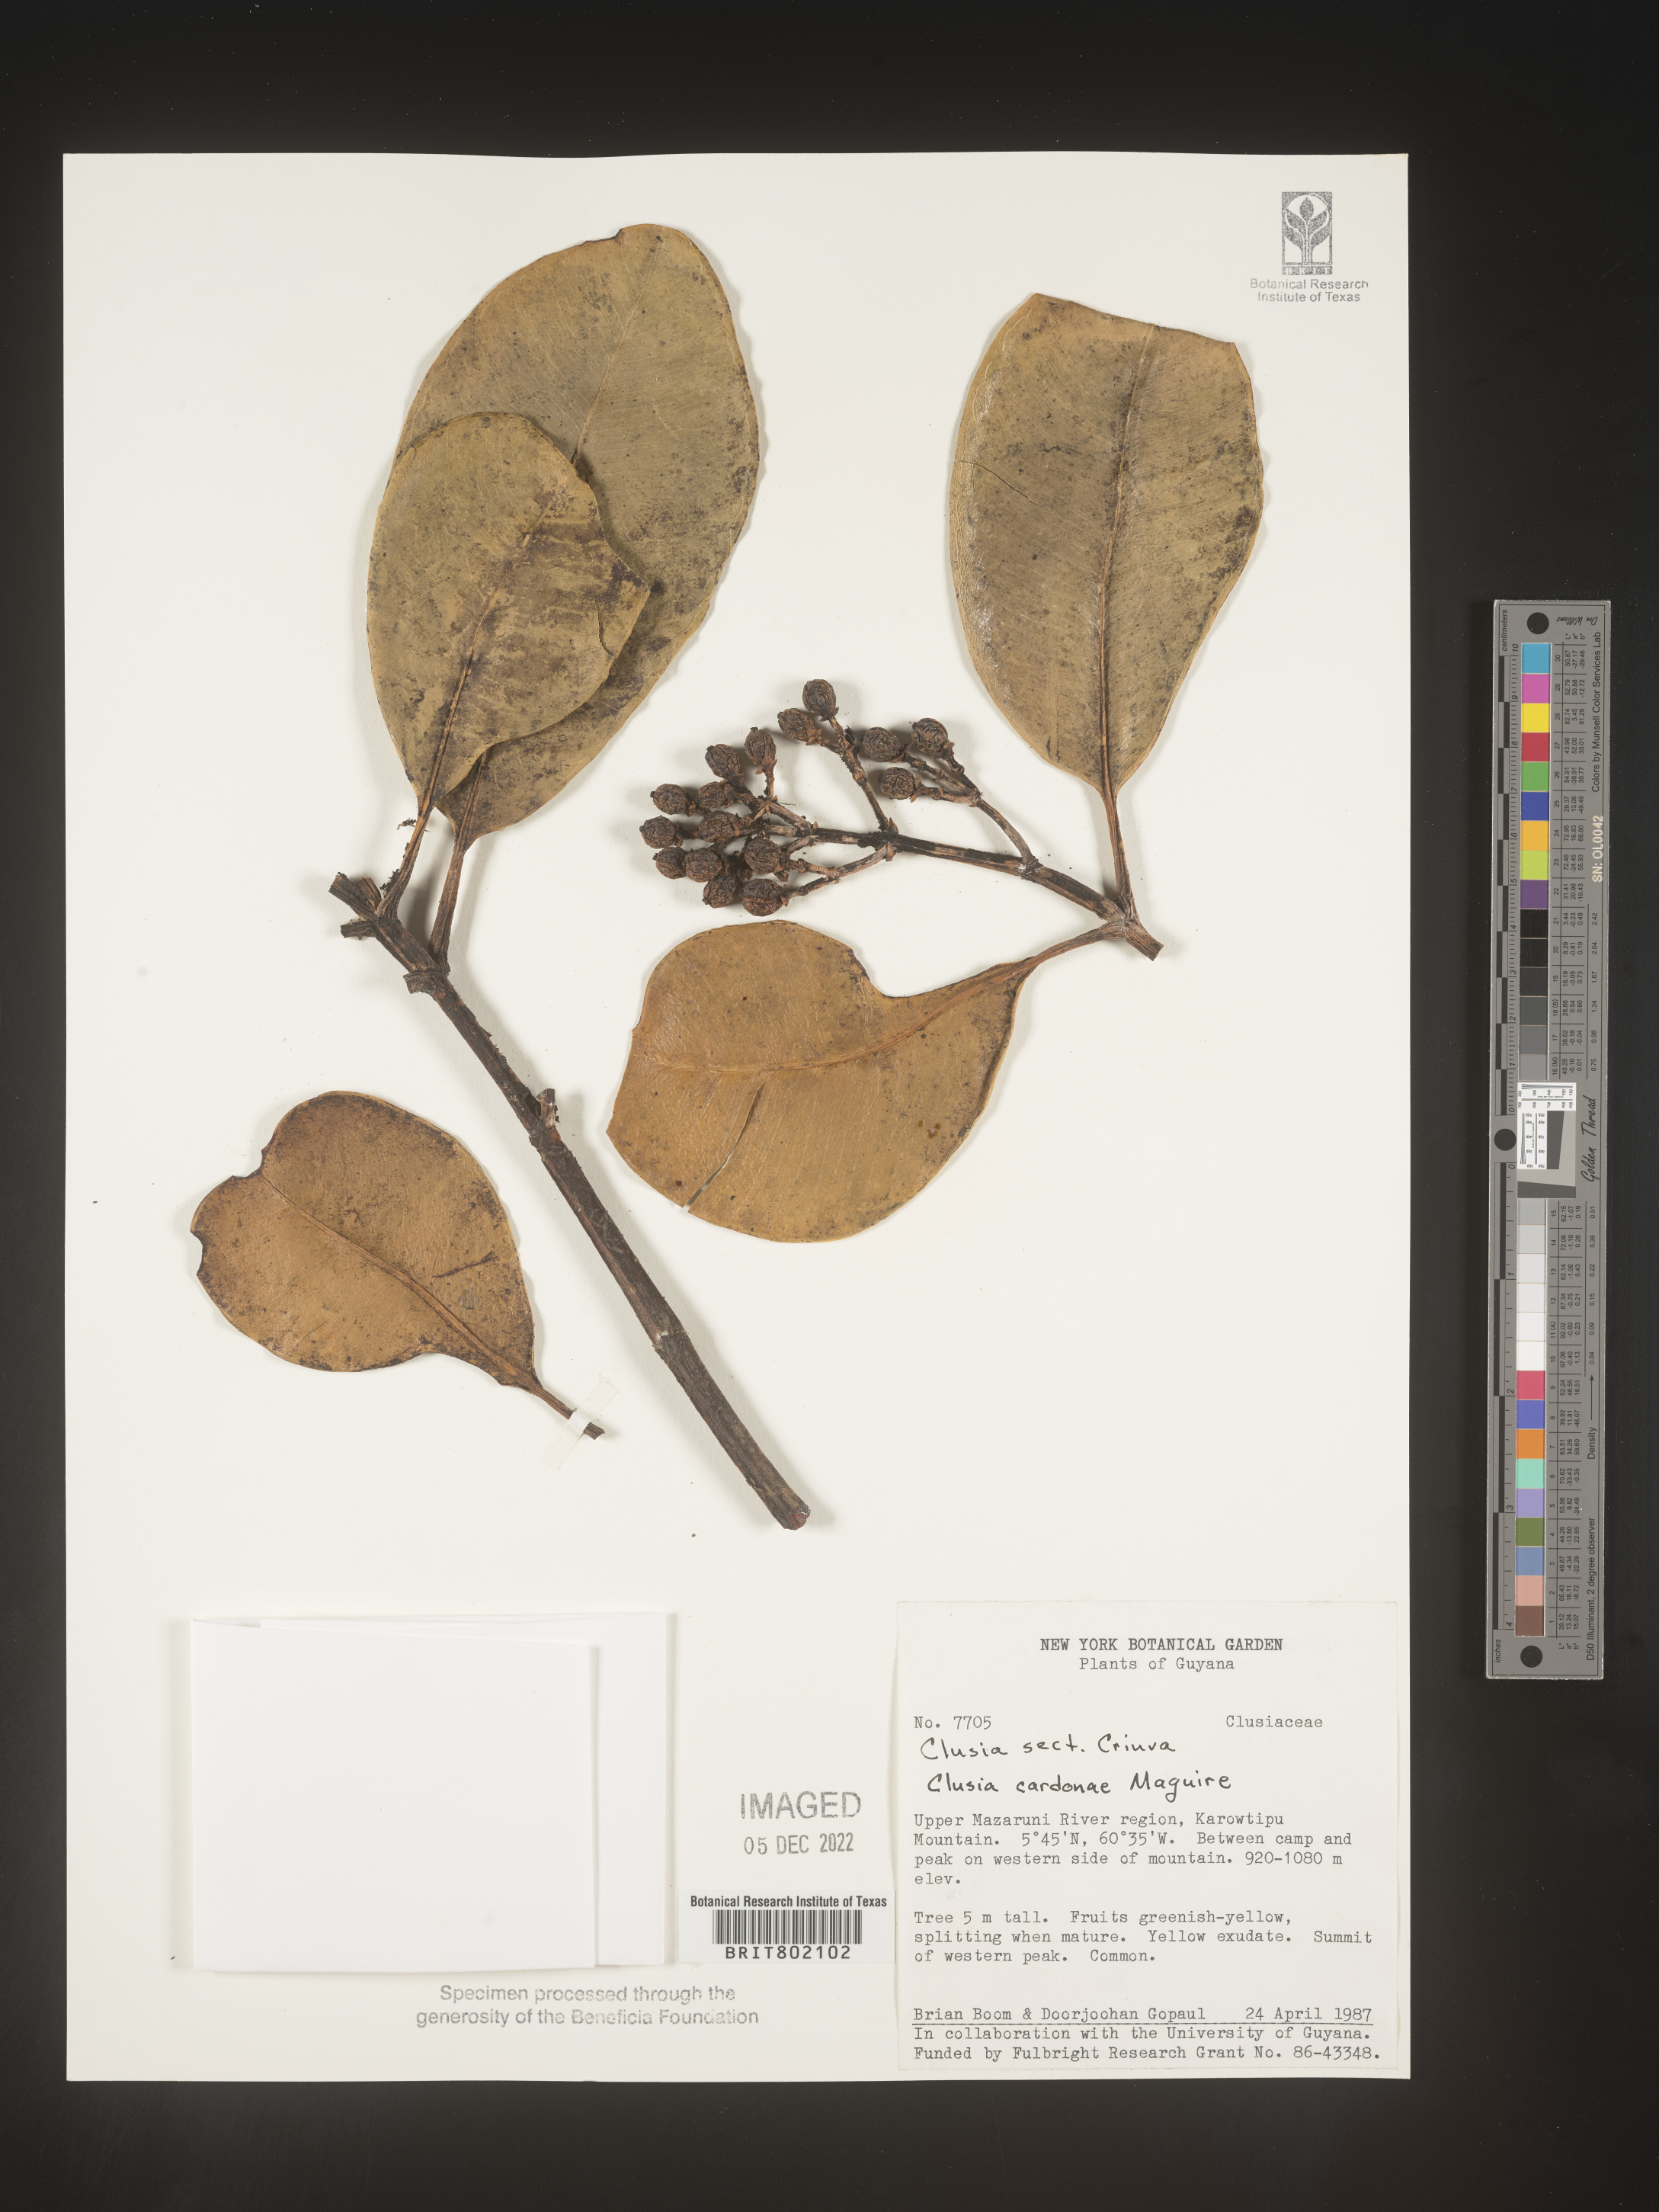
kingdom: Plantae
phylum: Tracheophyta
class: Magnoliopsida
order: Malpighiales
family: Clusiaceae
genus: Clusia
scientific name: Clusia
